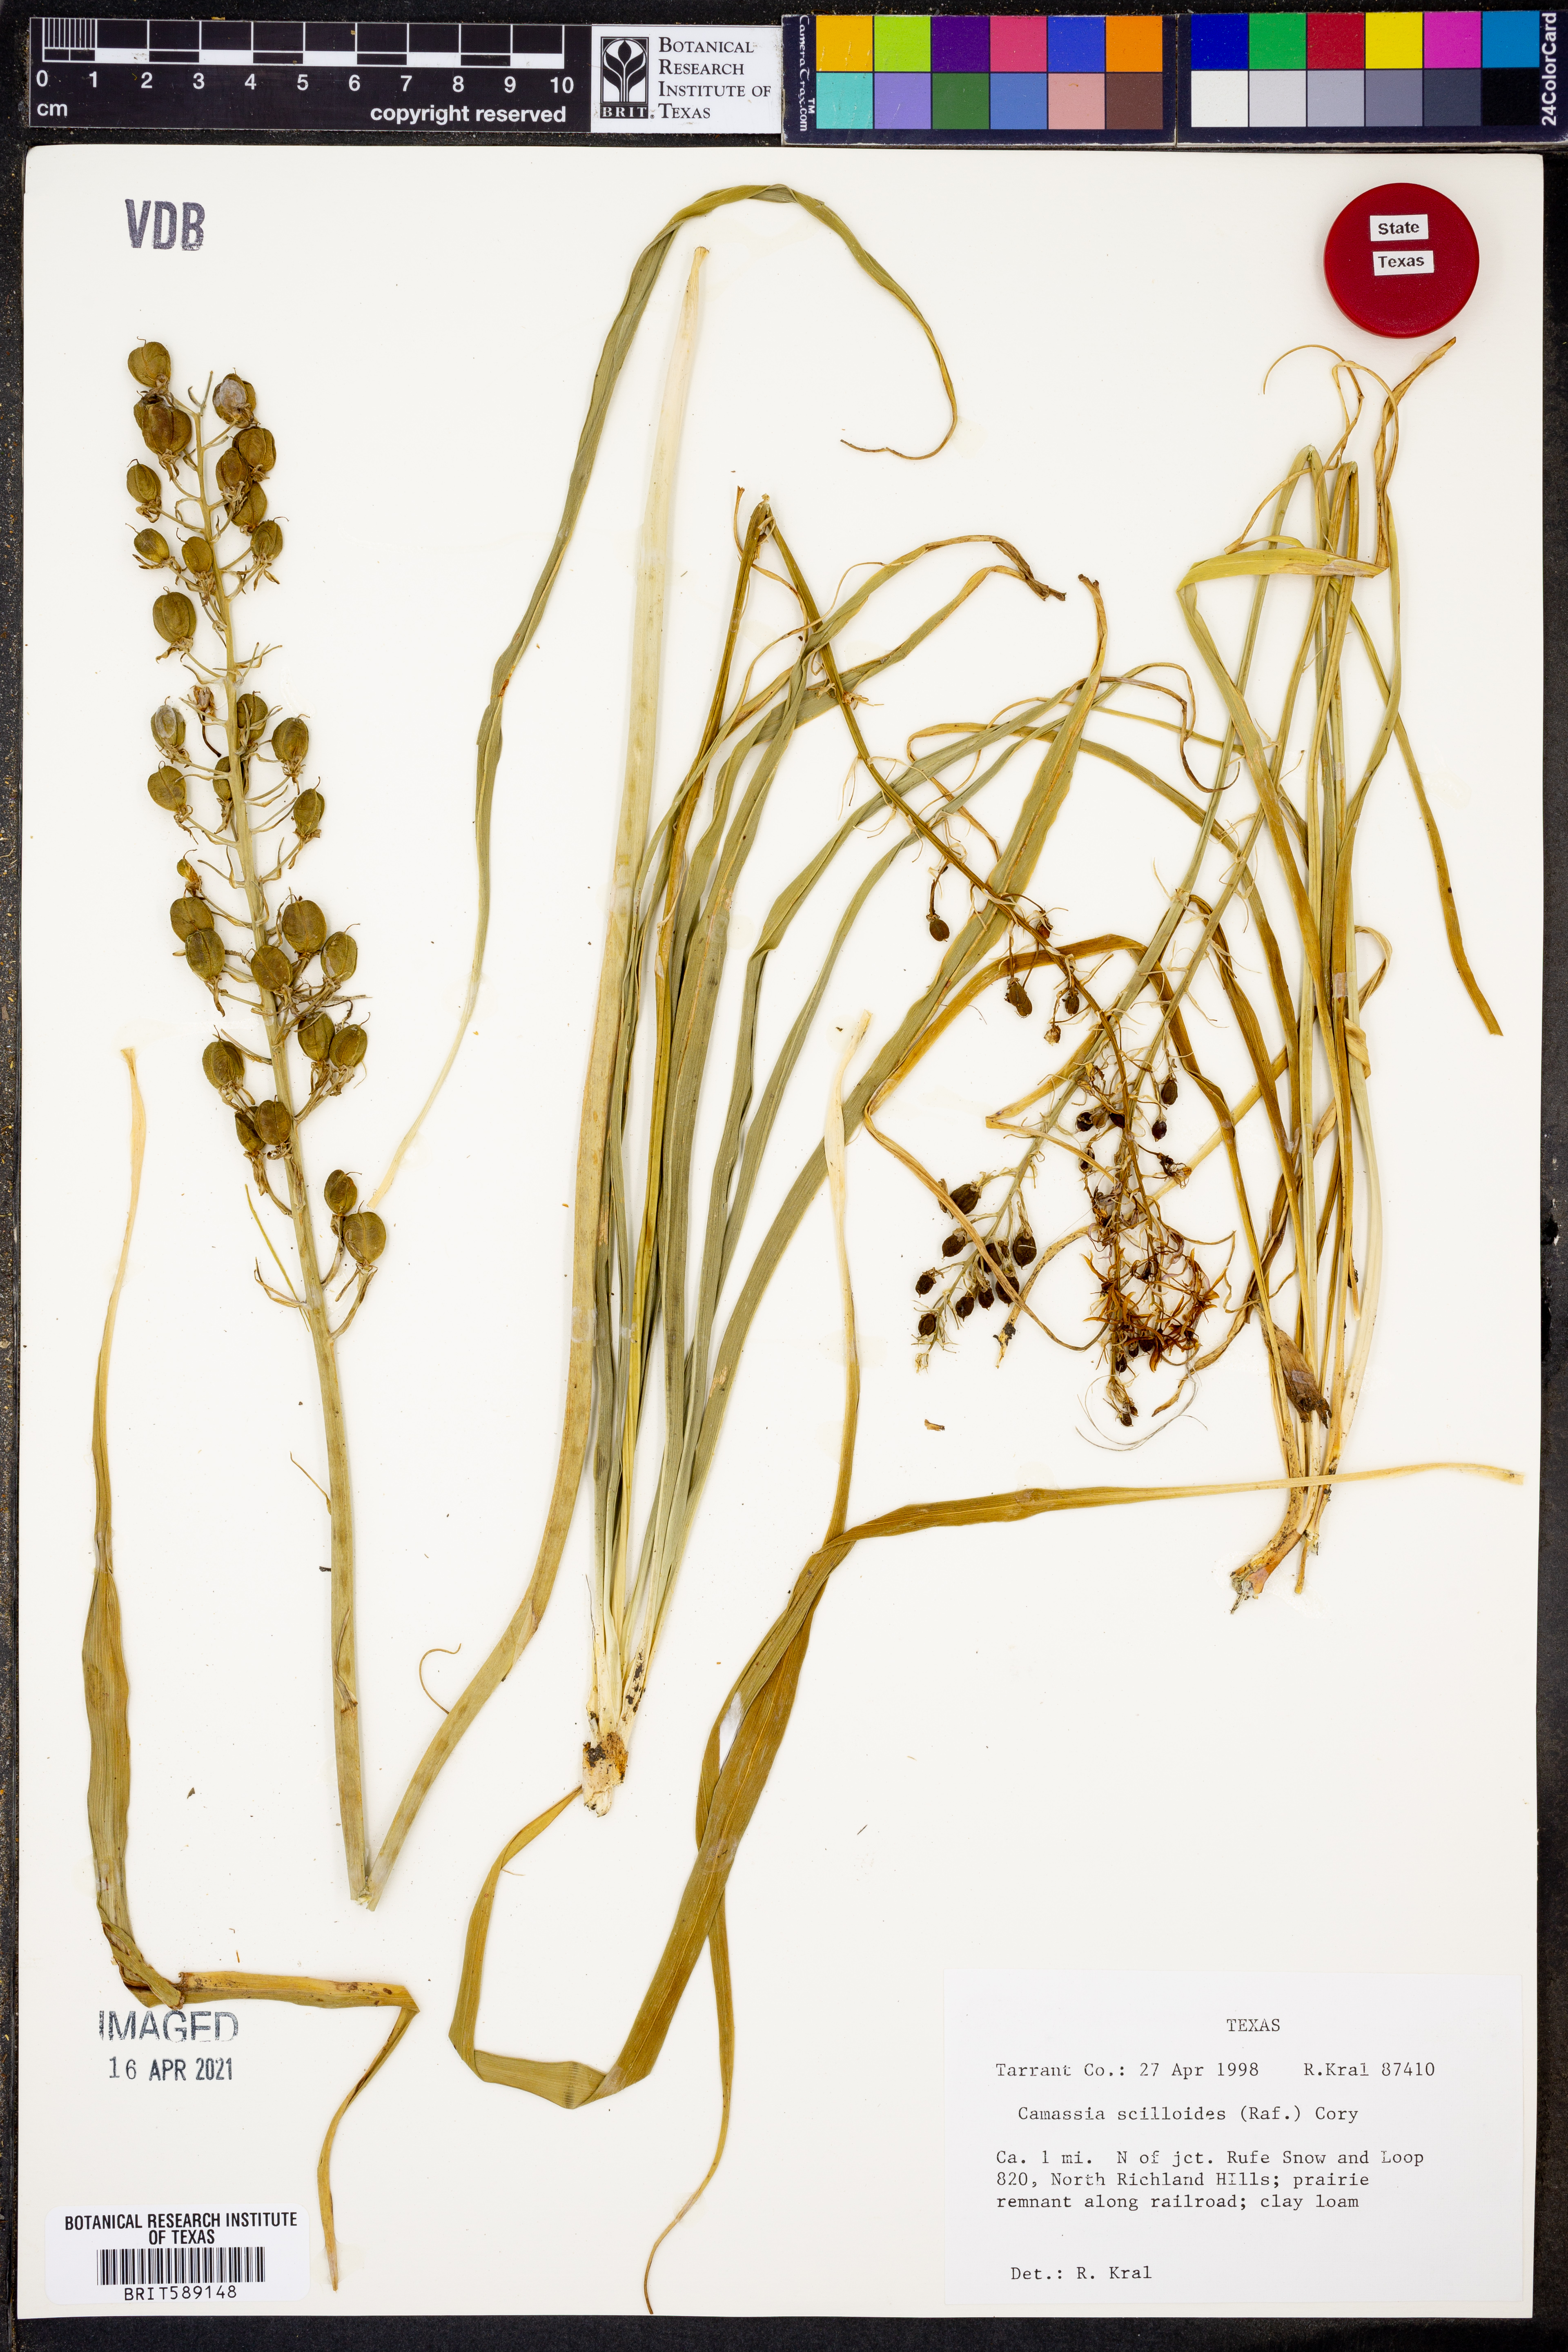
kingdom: Plantae
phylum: Tracheophyta
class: Liliopsida
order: Asparagales
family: Asparagaceae
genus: Camassia
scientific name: Camassia scilloides
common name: Wild hyacinth
